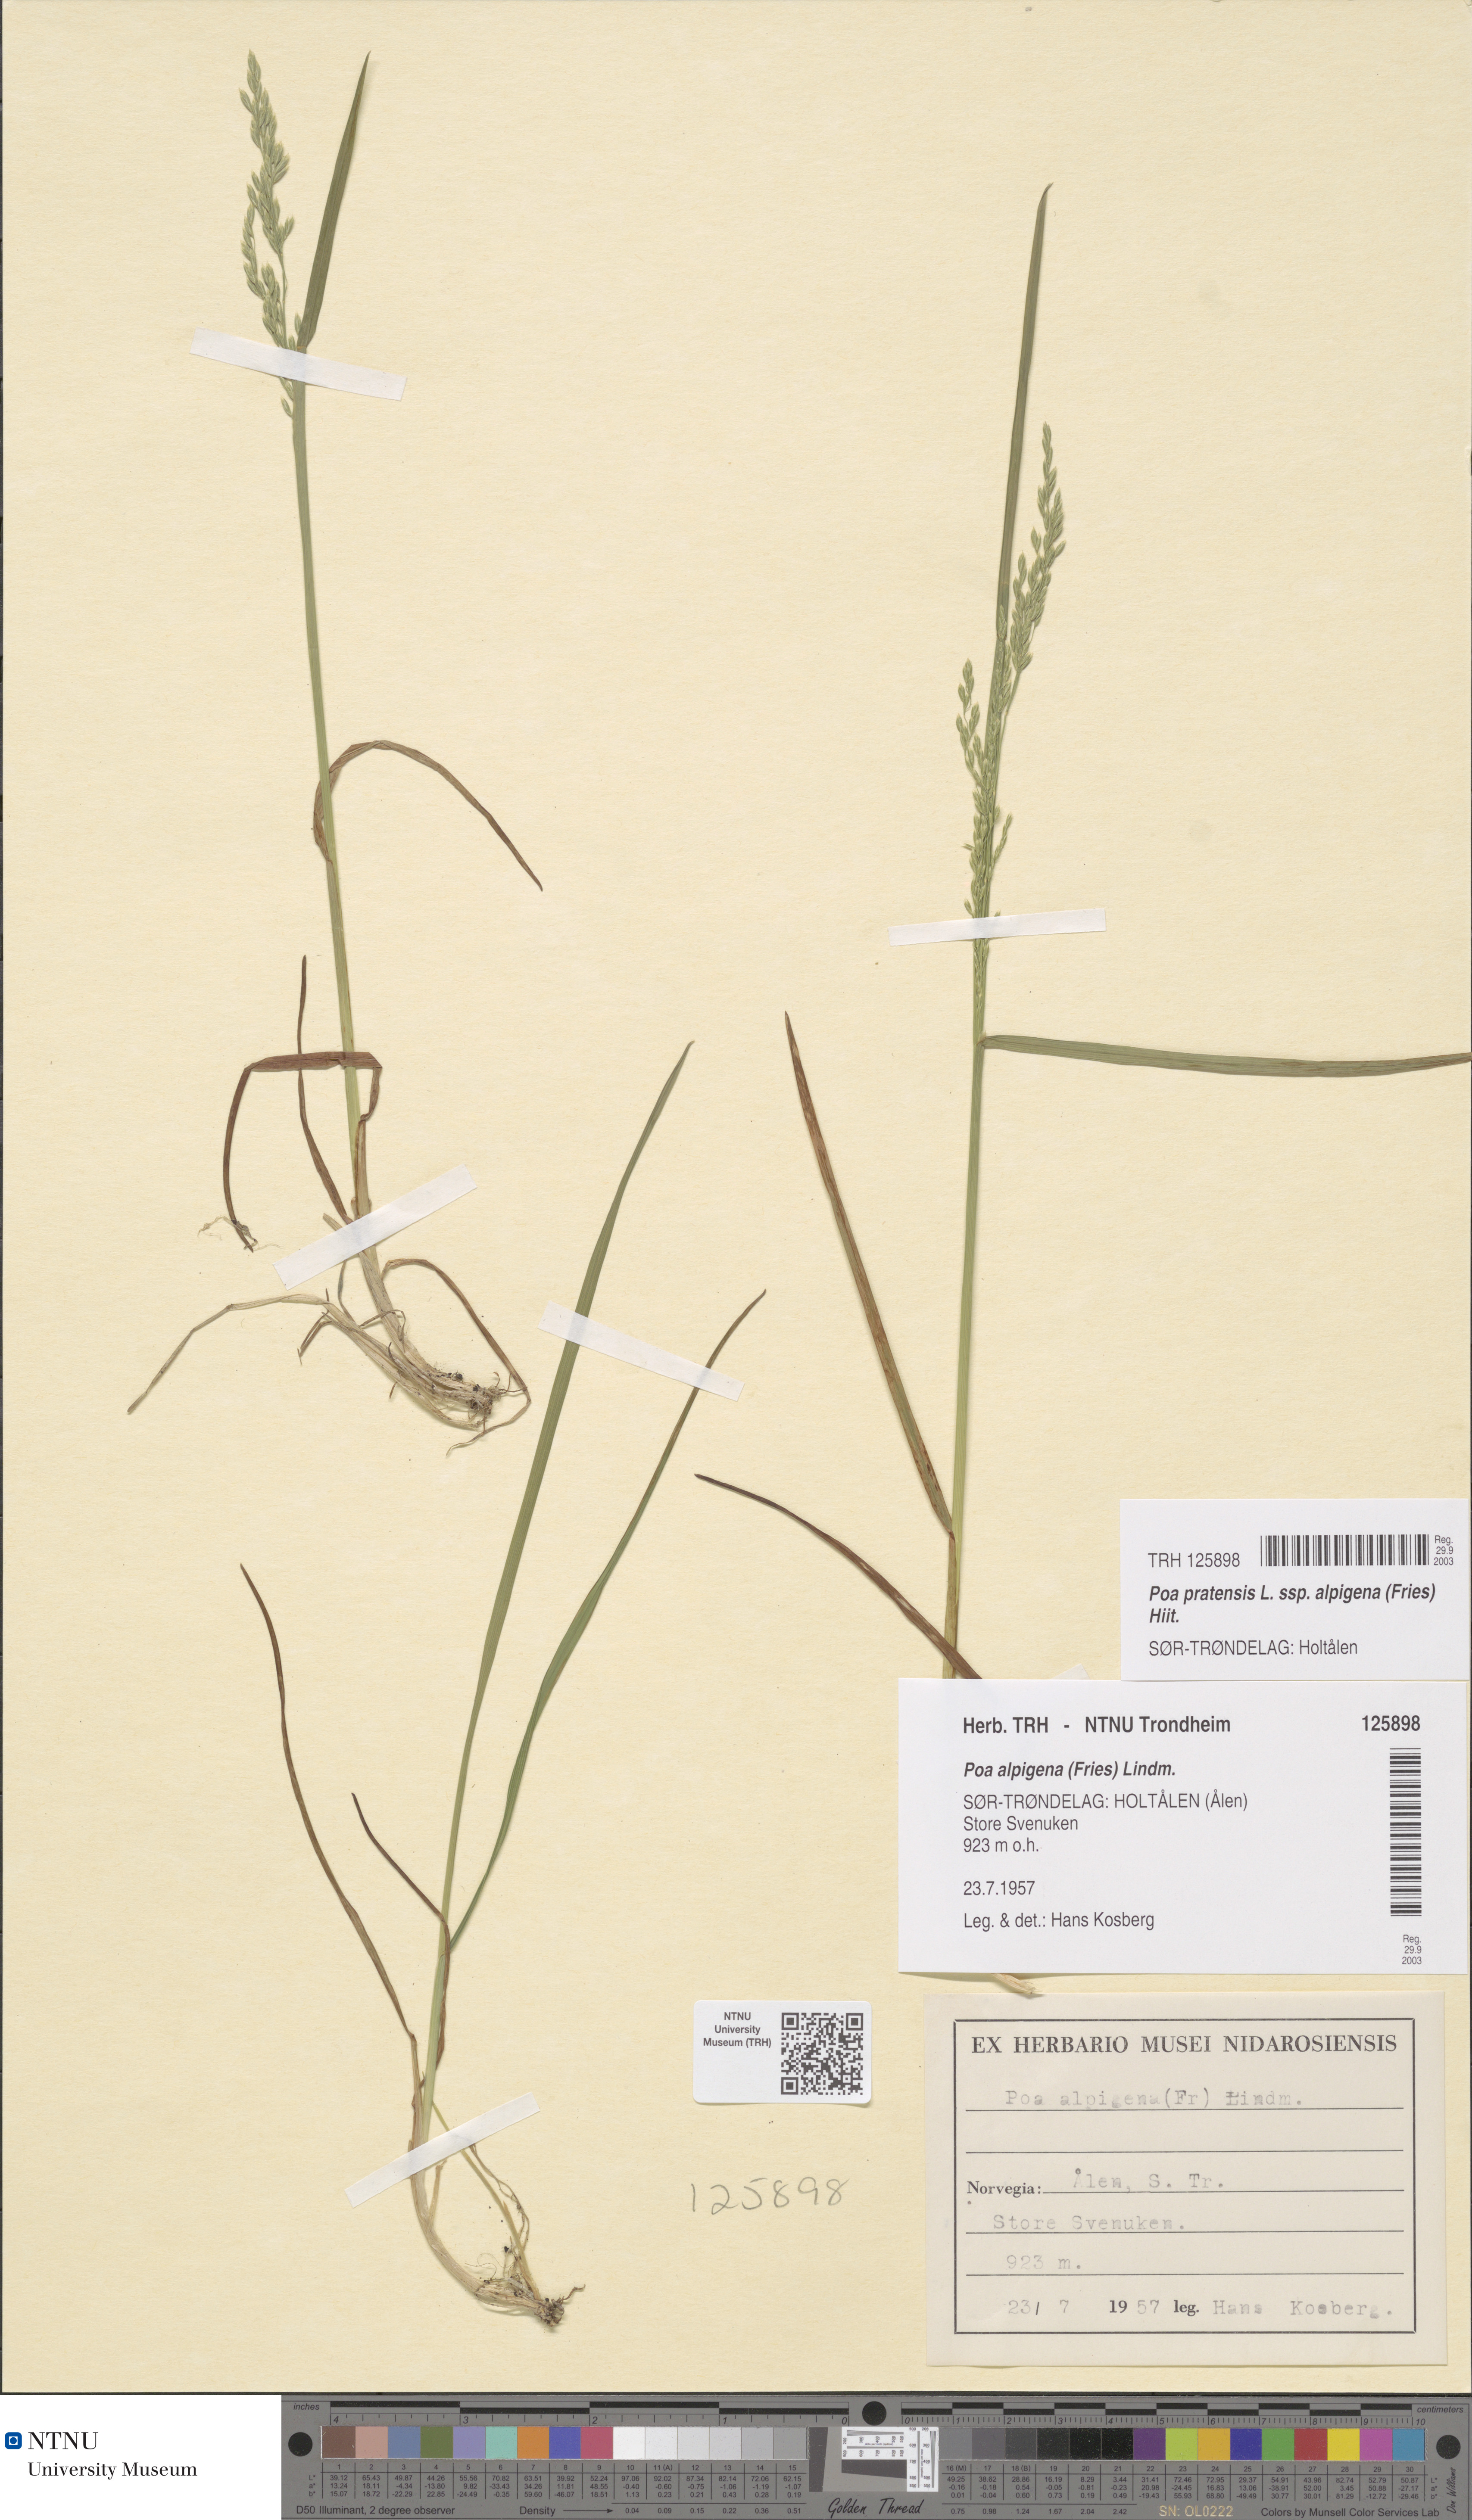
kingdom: Plantae
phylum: Tracheophyta
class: Liliopsida
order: Poales
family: Poaceae
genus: Poa
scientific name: Poa alpigena
